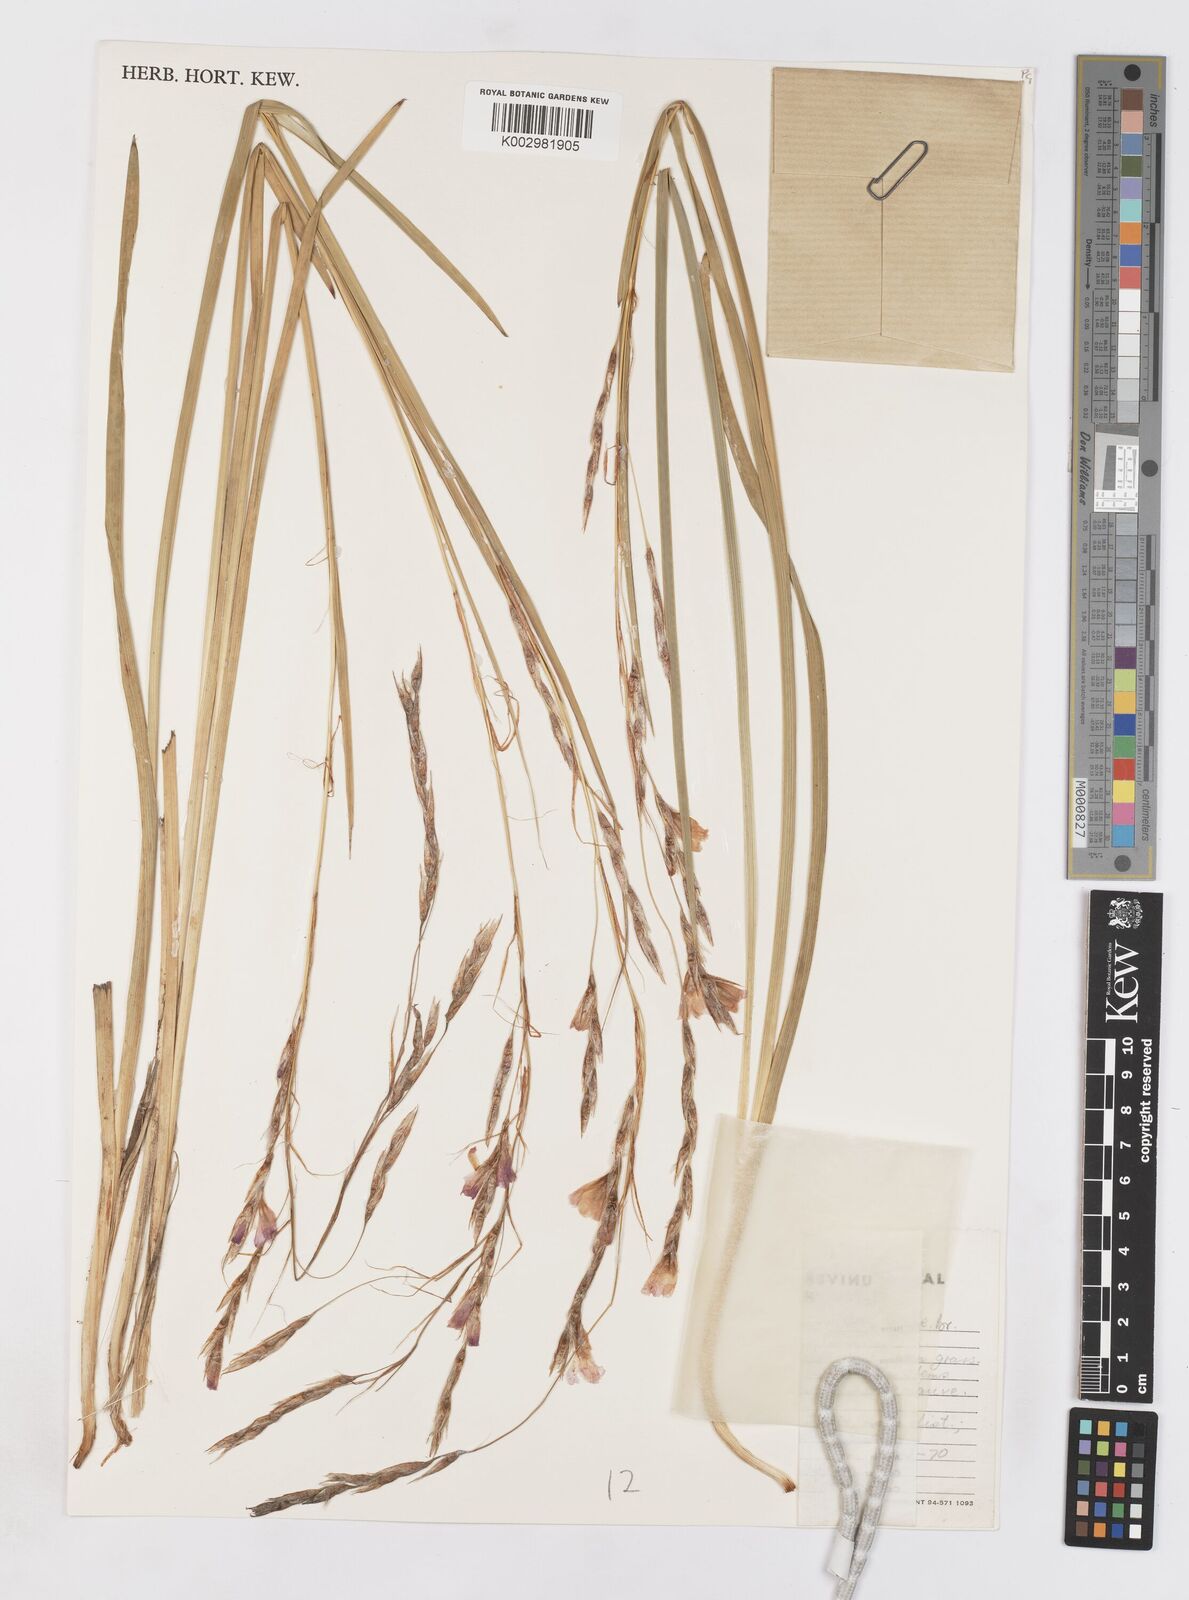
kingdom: Plantae
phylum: Tracheophyta
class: Liliopsida
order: Asparagales
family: Iridaceae
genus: Dierama
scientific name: Dierama galpinii
